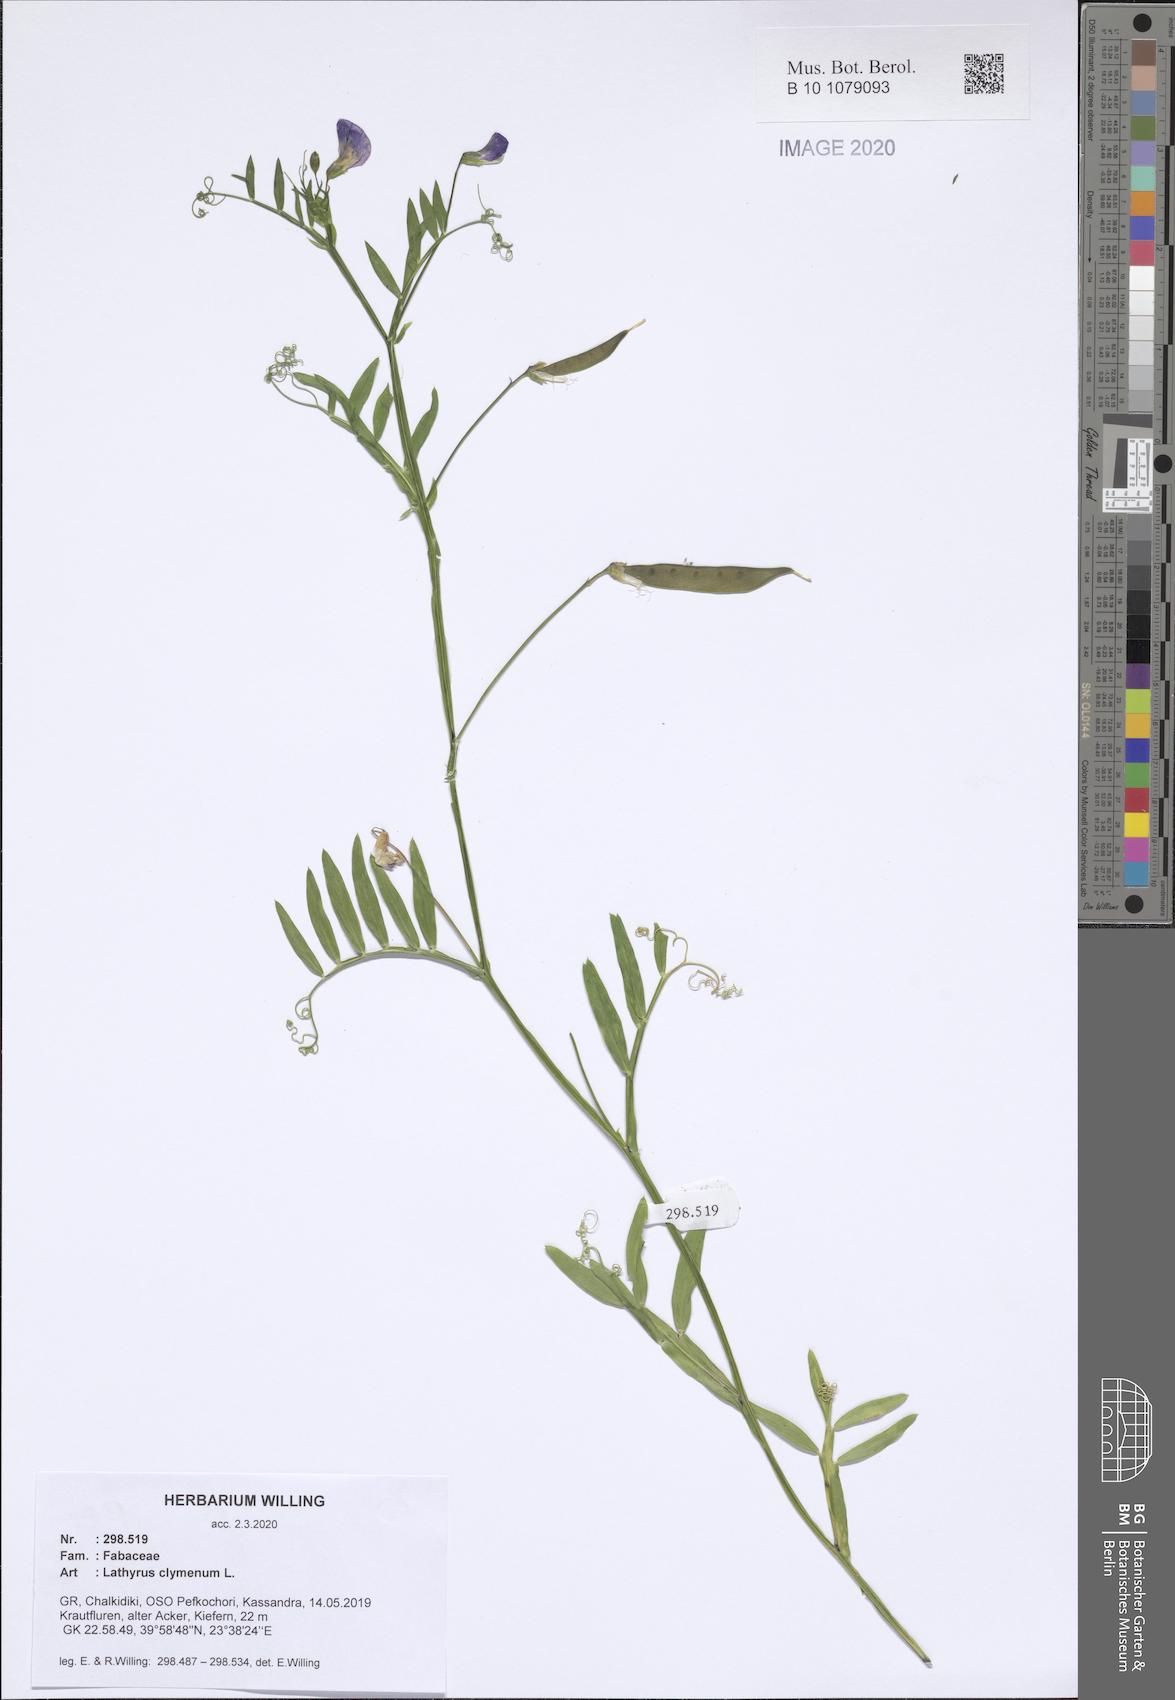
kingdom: Plantae
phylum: Tracheophyta
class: Magnoliopsida
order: Fabales
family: Fabaceae
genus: Lathyrus
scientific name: Lathyrus clymenum
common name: Spanish vetchling
